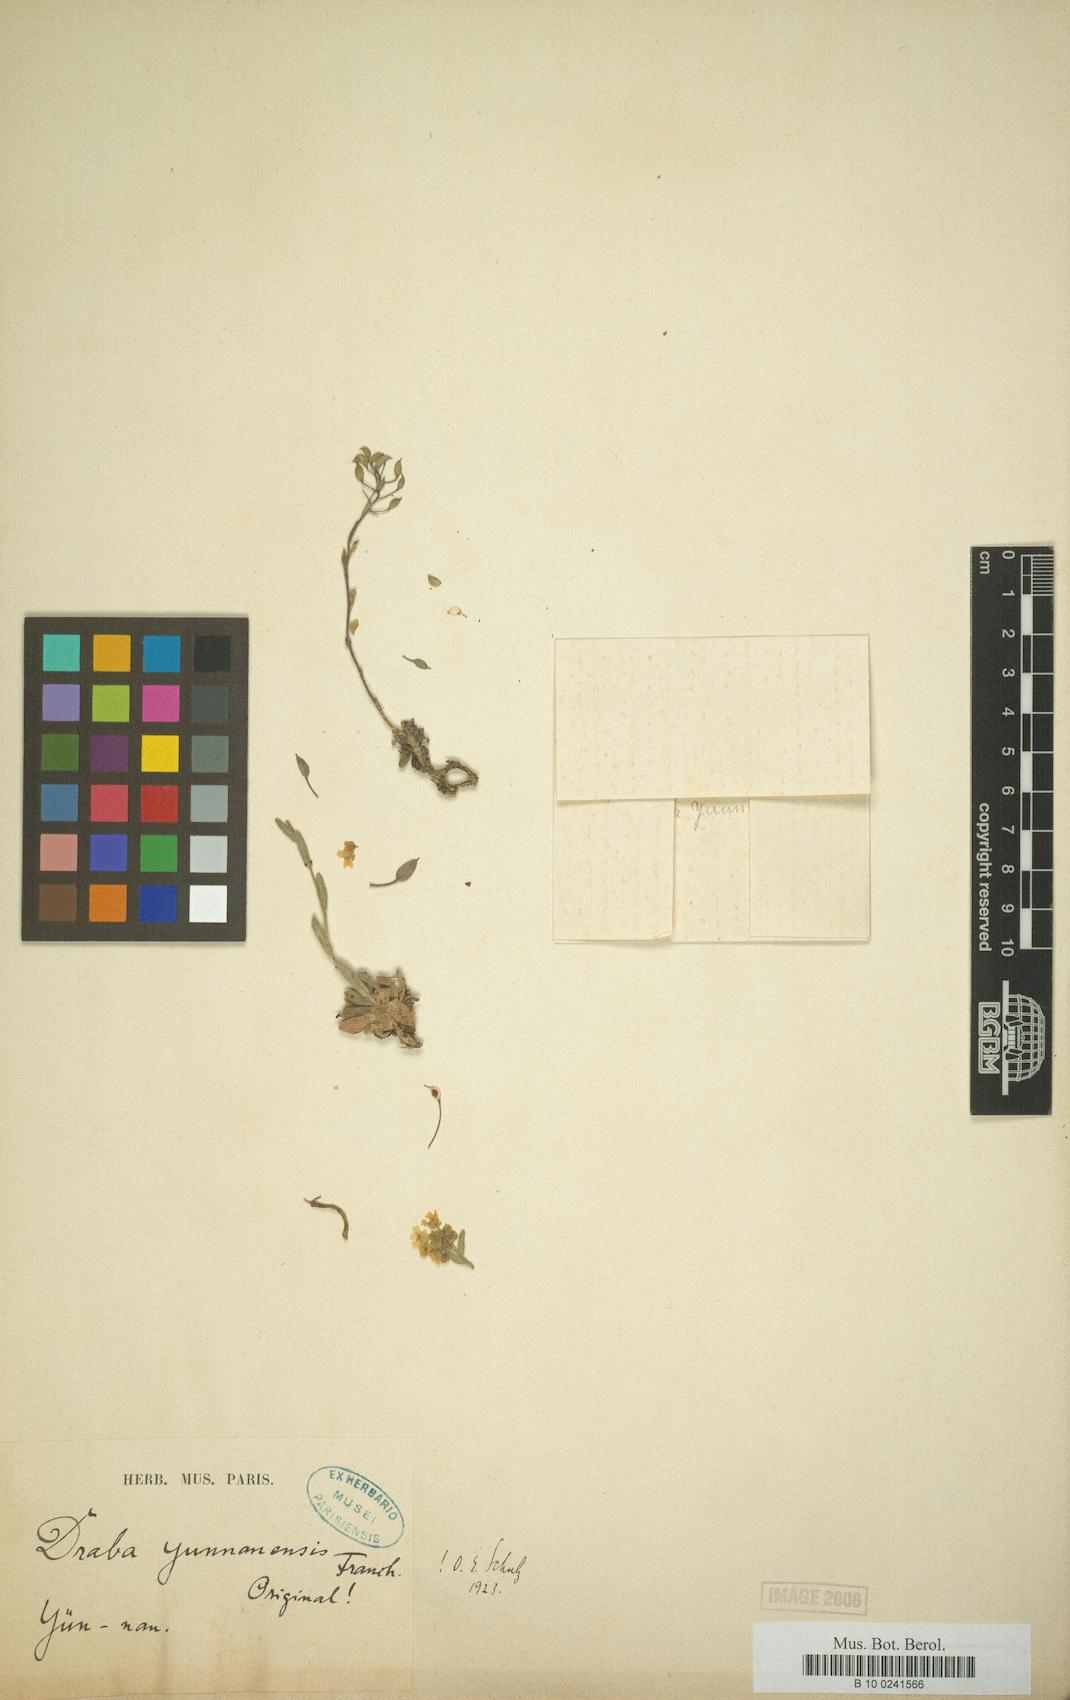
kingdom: Plantae
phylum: Tracheophyta
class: Magnoliopsida
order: Brassicales
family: Brassicaceae
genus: Draba
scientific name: Draba yunnanensis
